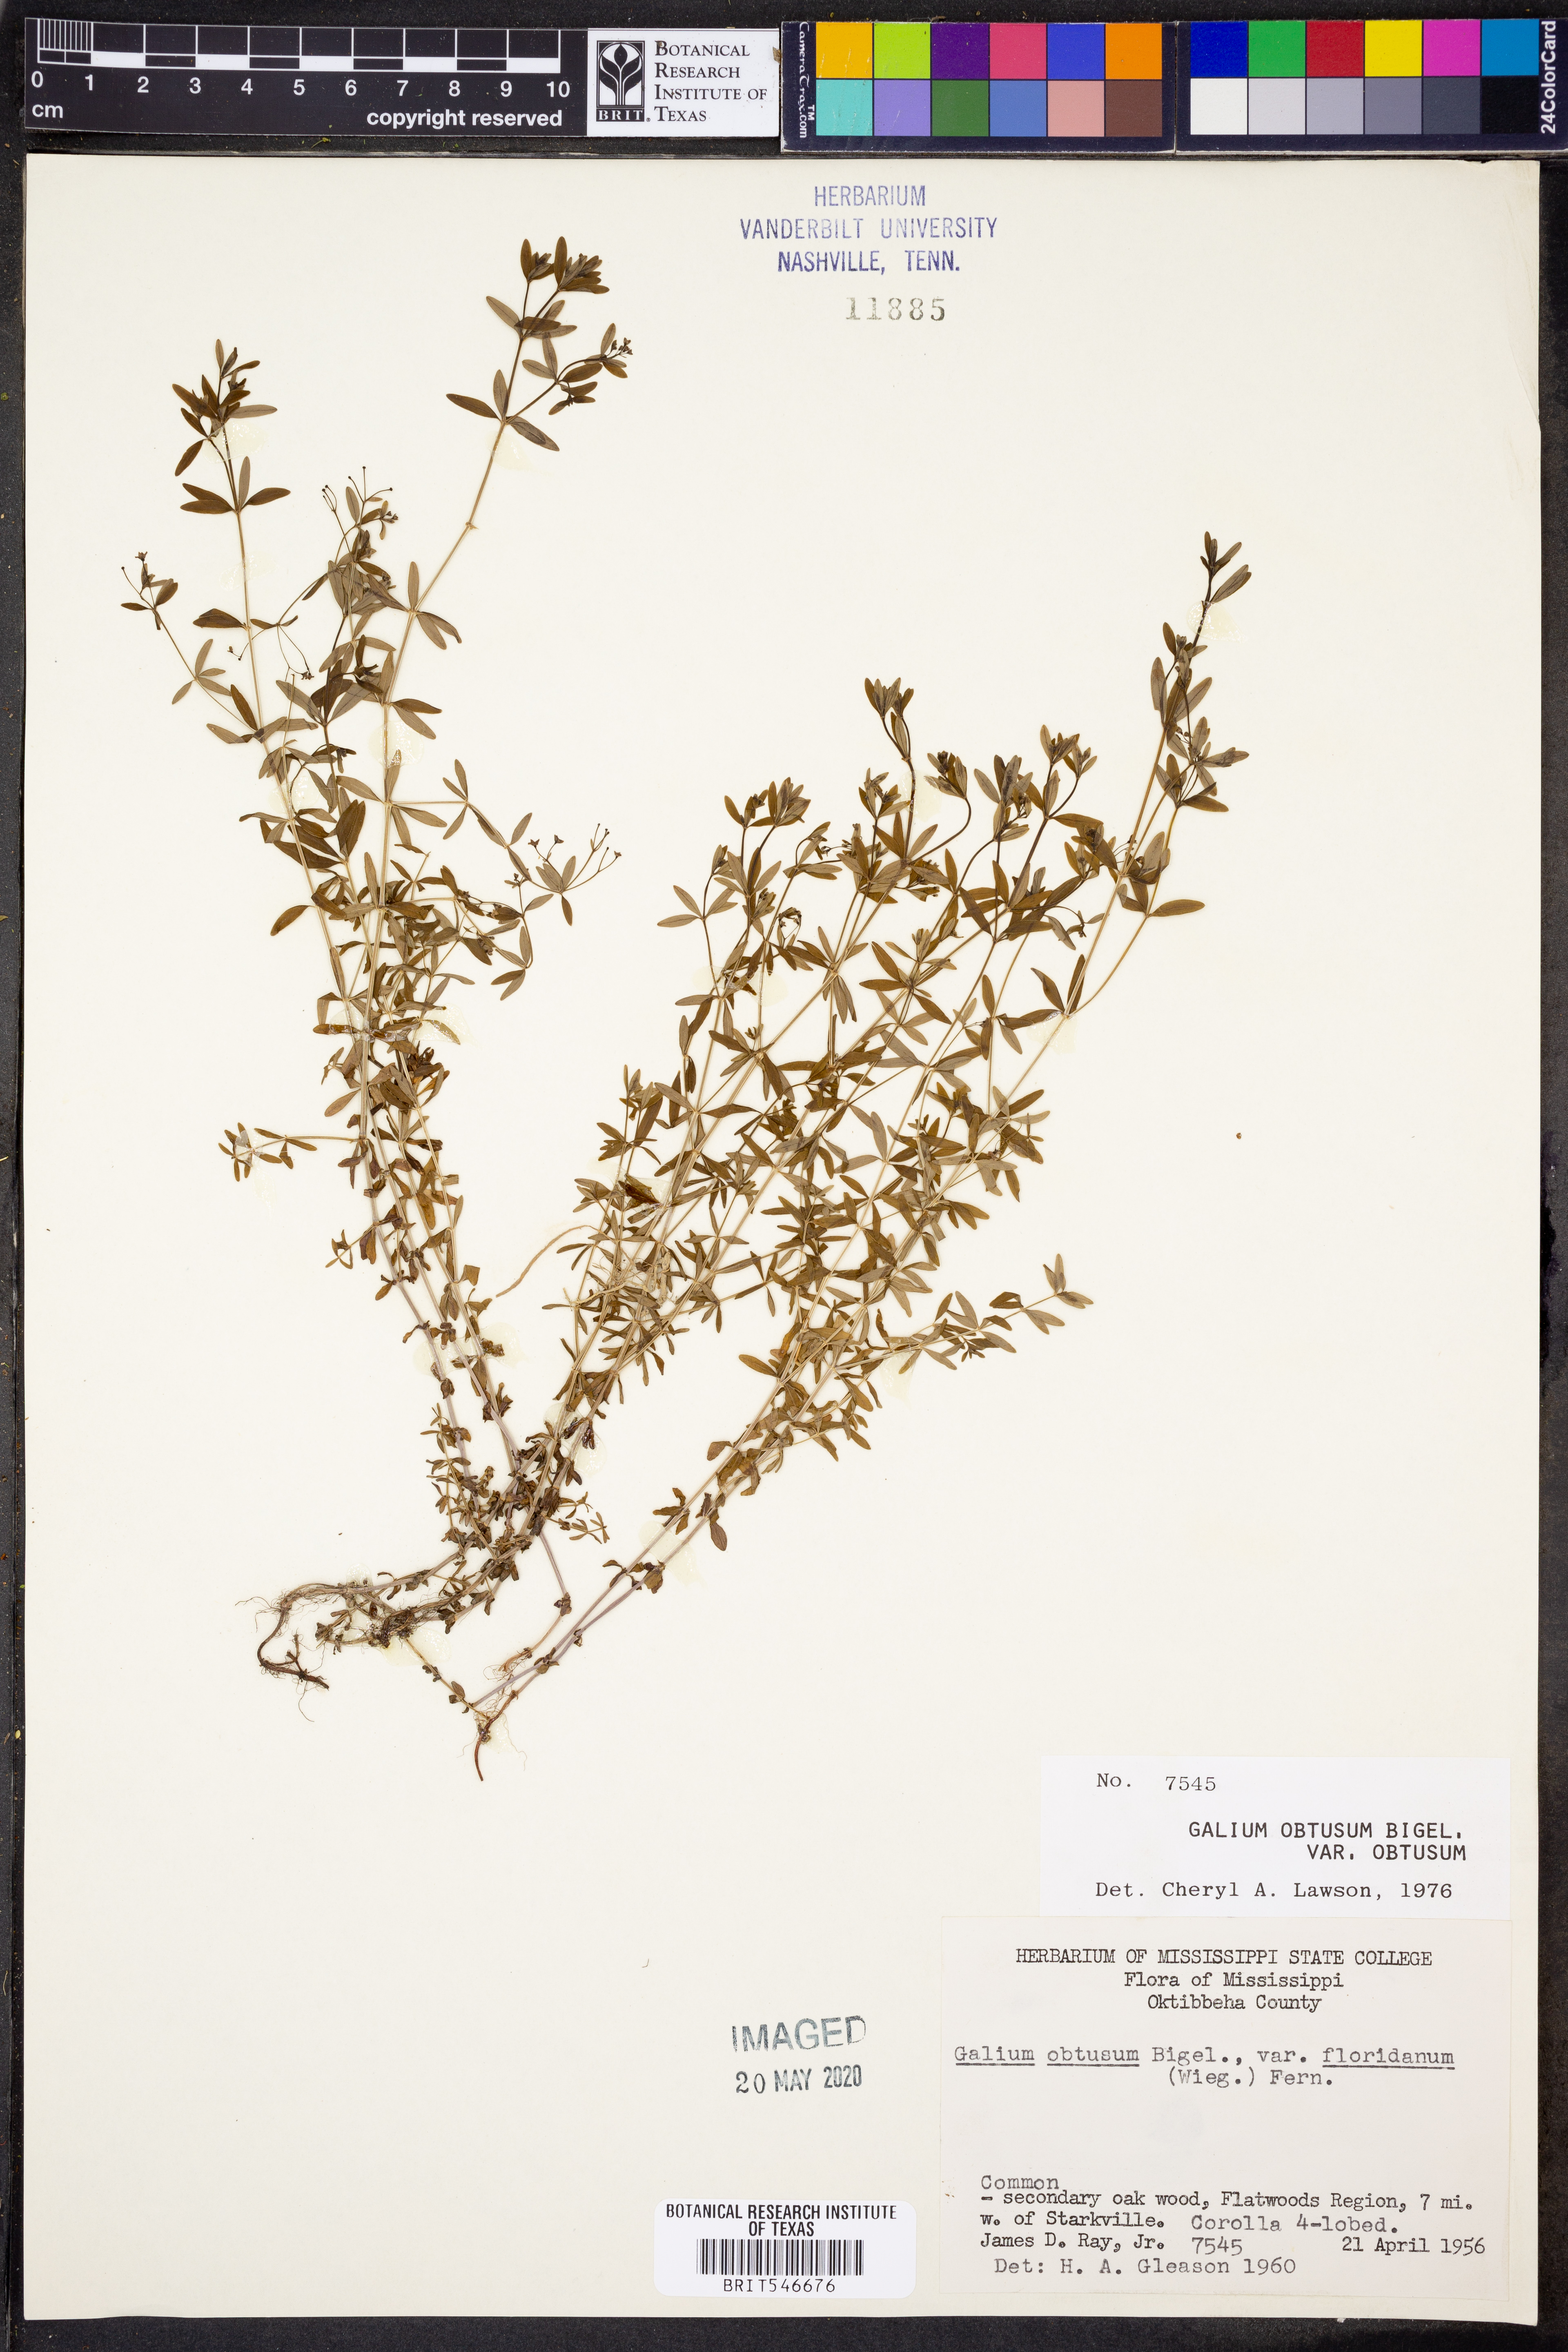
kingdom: Plantae
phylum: Tracheophyta
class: Magnoliopsida
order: Gentianales
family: Rubiaceae
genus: Galium
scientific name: Galium obtusum
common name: Blunt-leaved bedstraw
